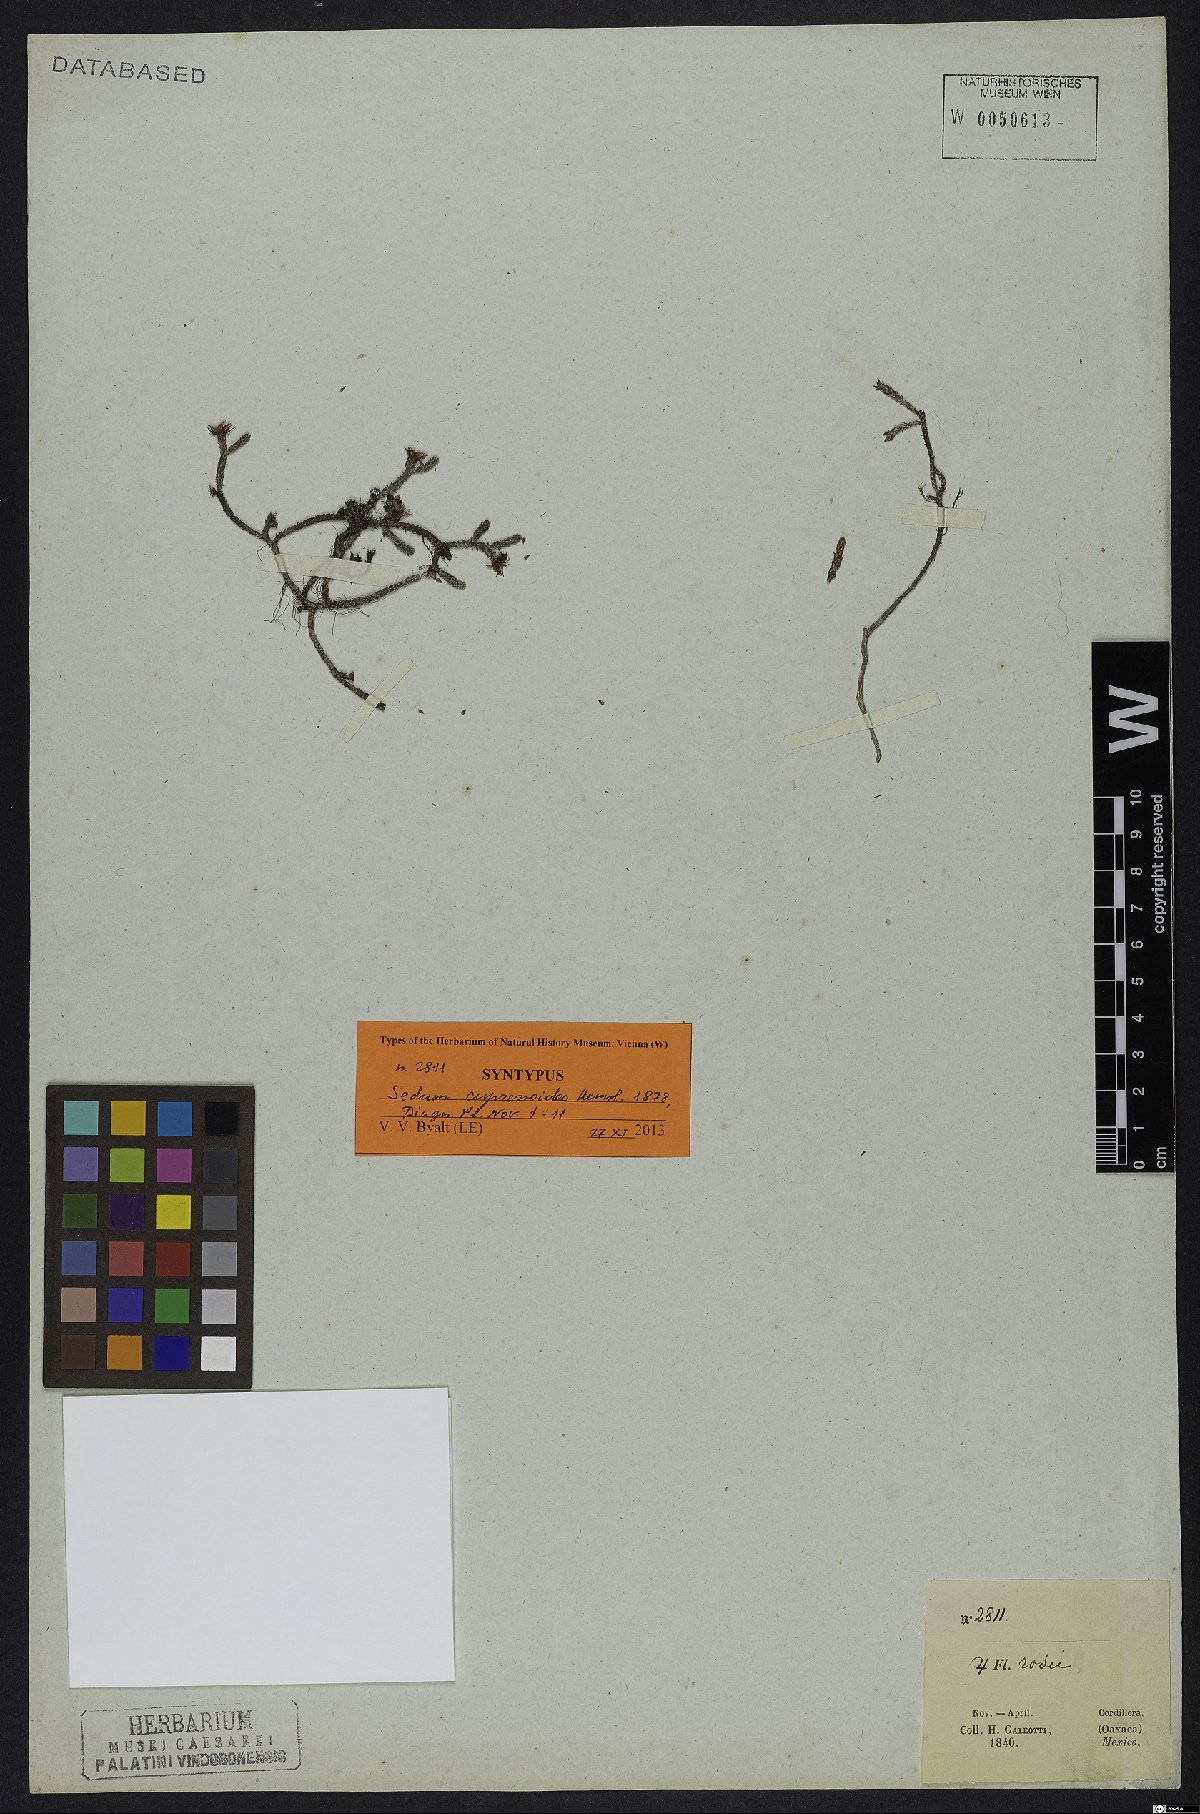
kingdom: Plantae
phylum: Tracheophyta
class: Magnoliopsida
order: Saxifragales
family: Crassulaceae
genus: Sedum
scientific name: Sedum cupressoides
